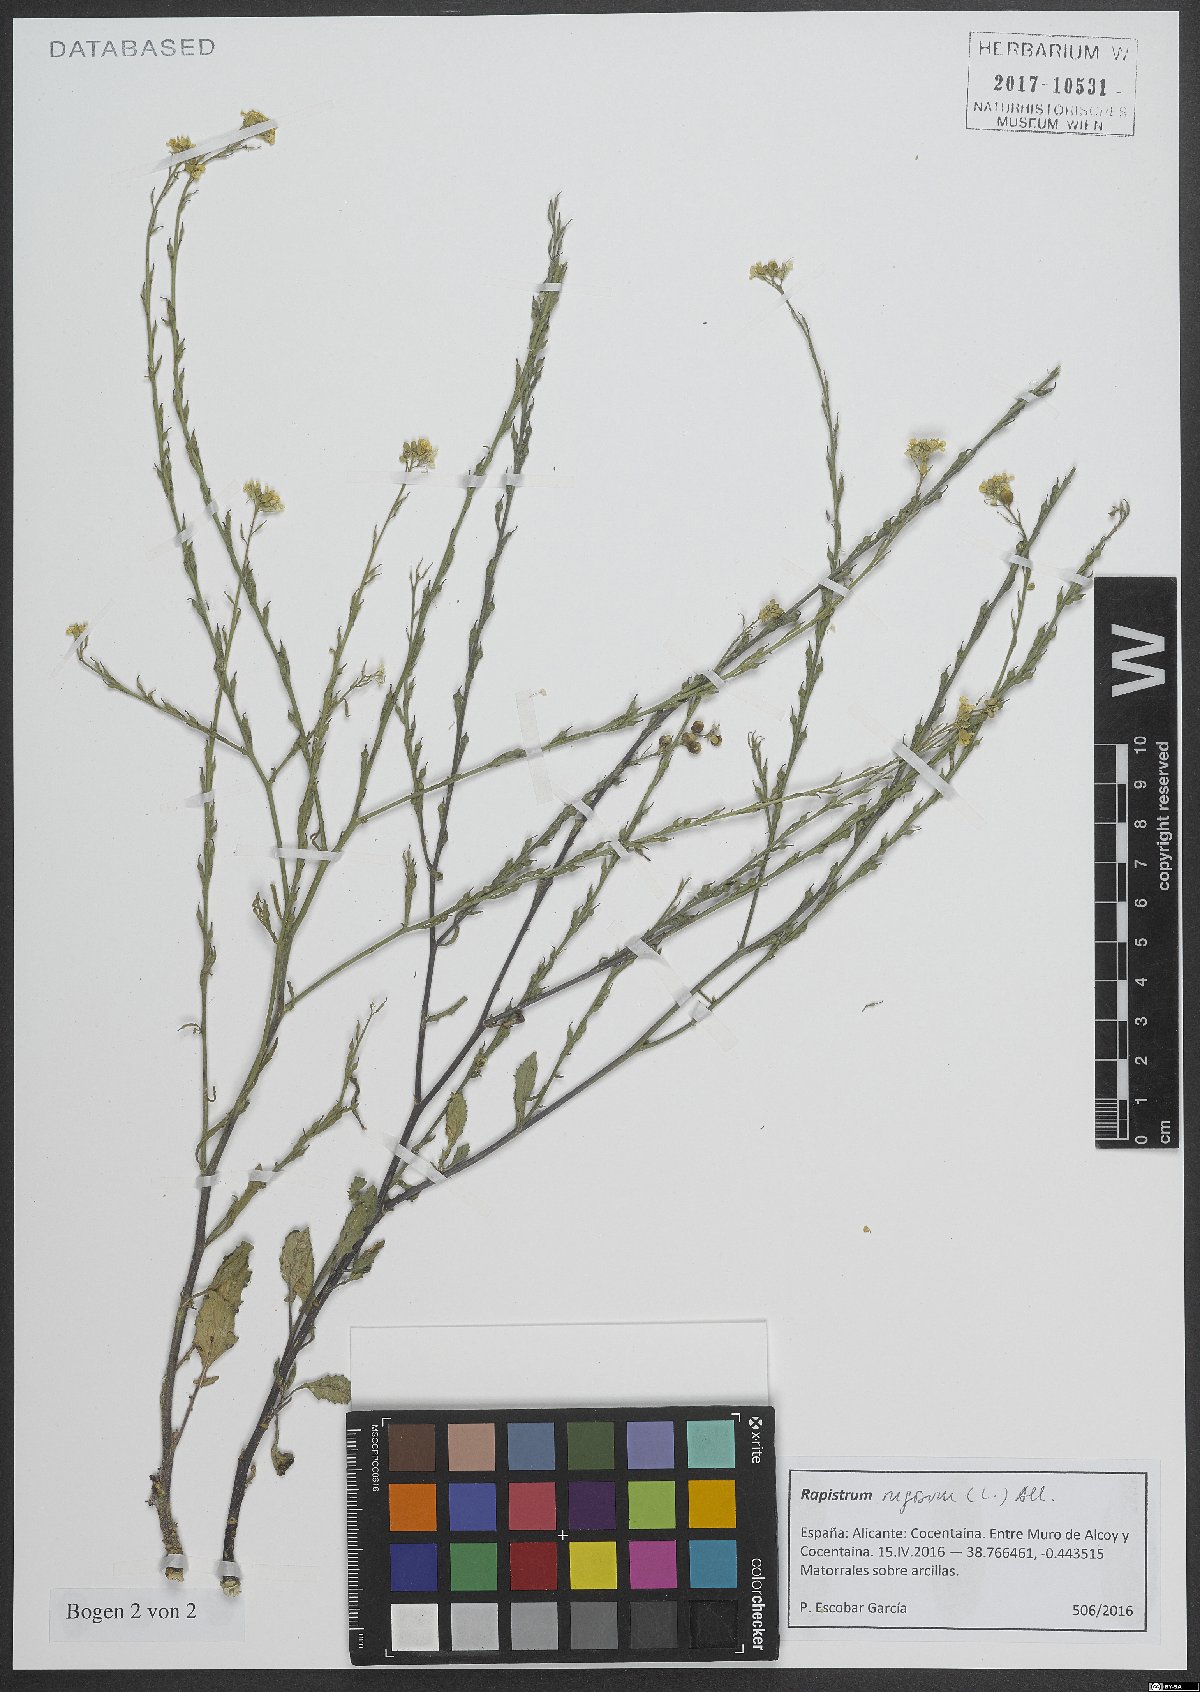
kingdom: Plantae
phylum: Tracheophyta
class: Magnoliopsida
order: Brassicales
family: Brassicaceae
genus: Rapistrum
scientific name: Rapistrum rugosum
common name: Annual bastardcabbage
